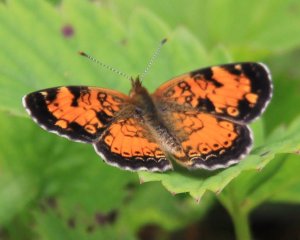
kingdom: Animalia
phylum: Arthropoda
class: Insecta
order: Lepidoptera
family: Nymphalidae
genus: Phyciodes
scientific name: Phyciodes tharos
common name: Northern Crescent
